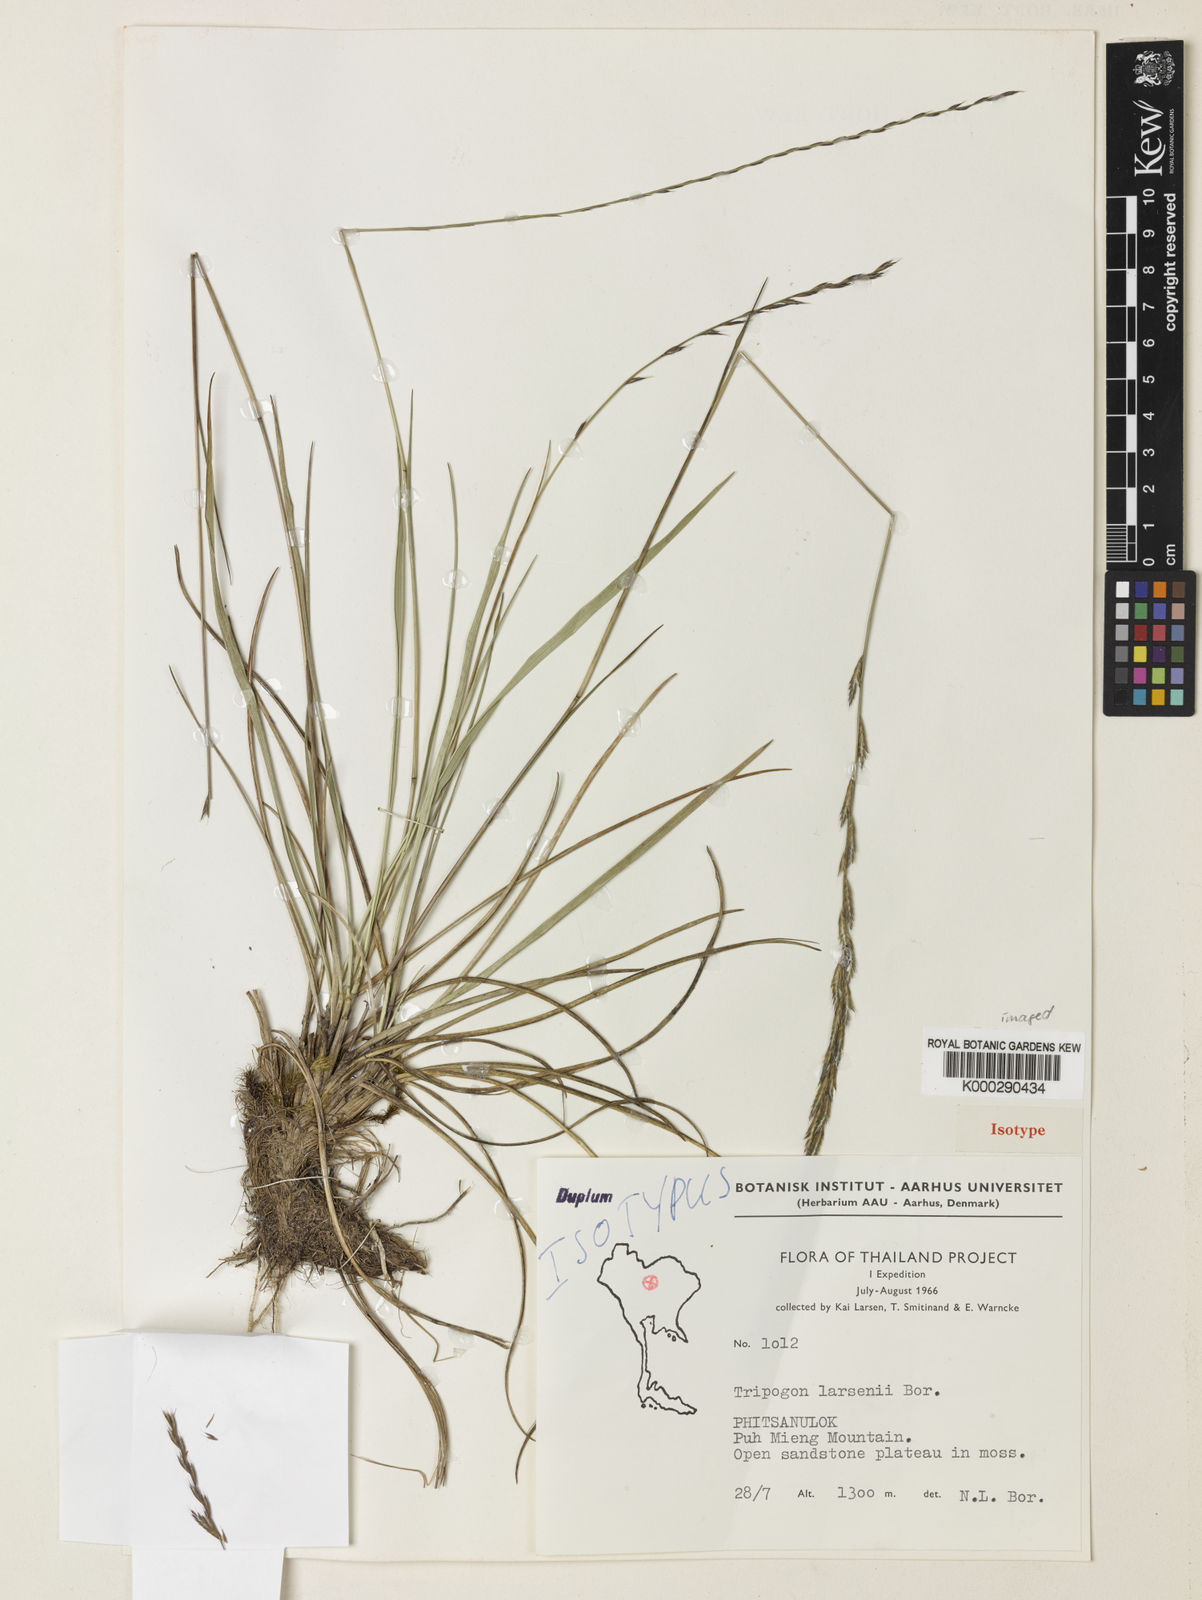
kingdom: Plantae
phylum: Tracheophyta
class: Liliopsida
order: Poales
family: Poaceae
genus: Tripogon
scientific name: Tripogon larsenii
